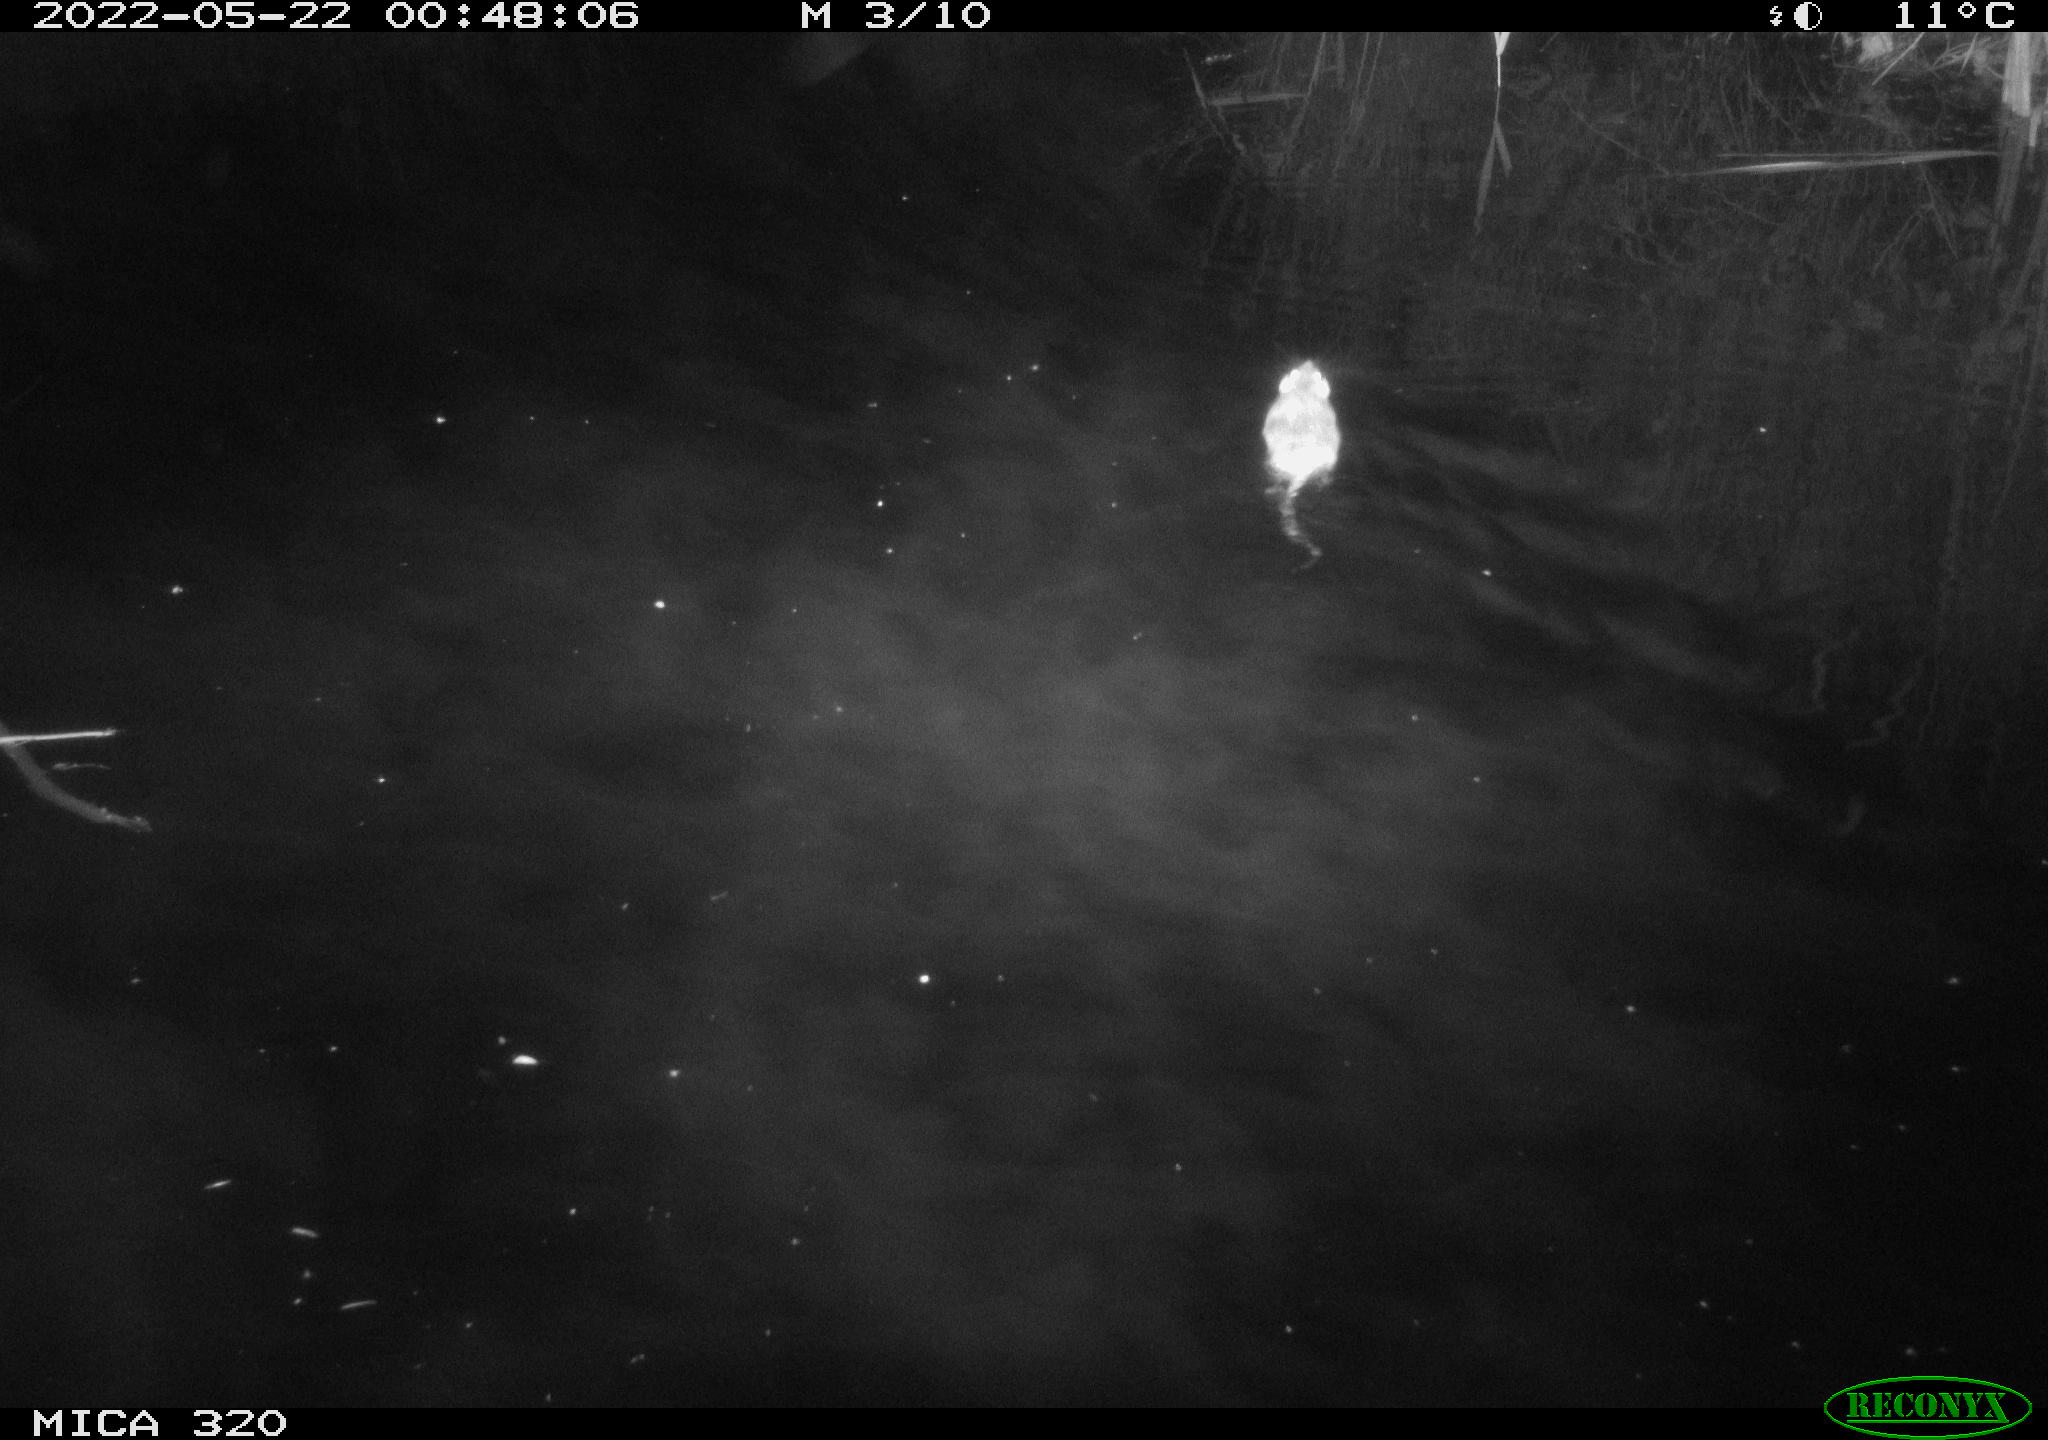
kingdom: Animalia
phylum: Chordata
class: Mammalia
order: Rodentia
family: Muridae
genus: Rattus
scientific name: Rattus norvegicus
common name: Brown rat
